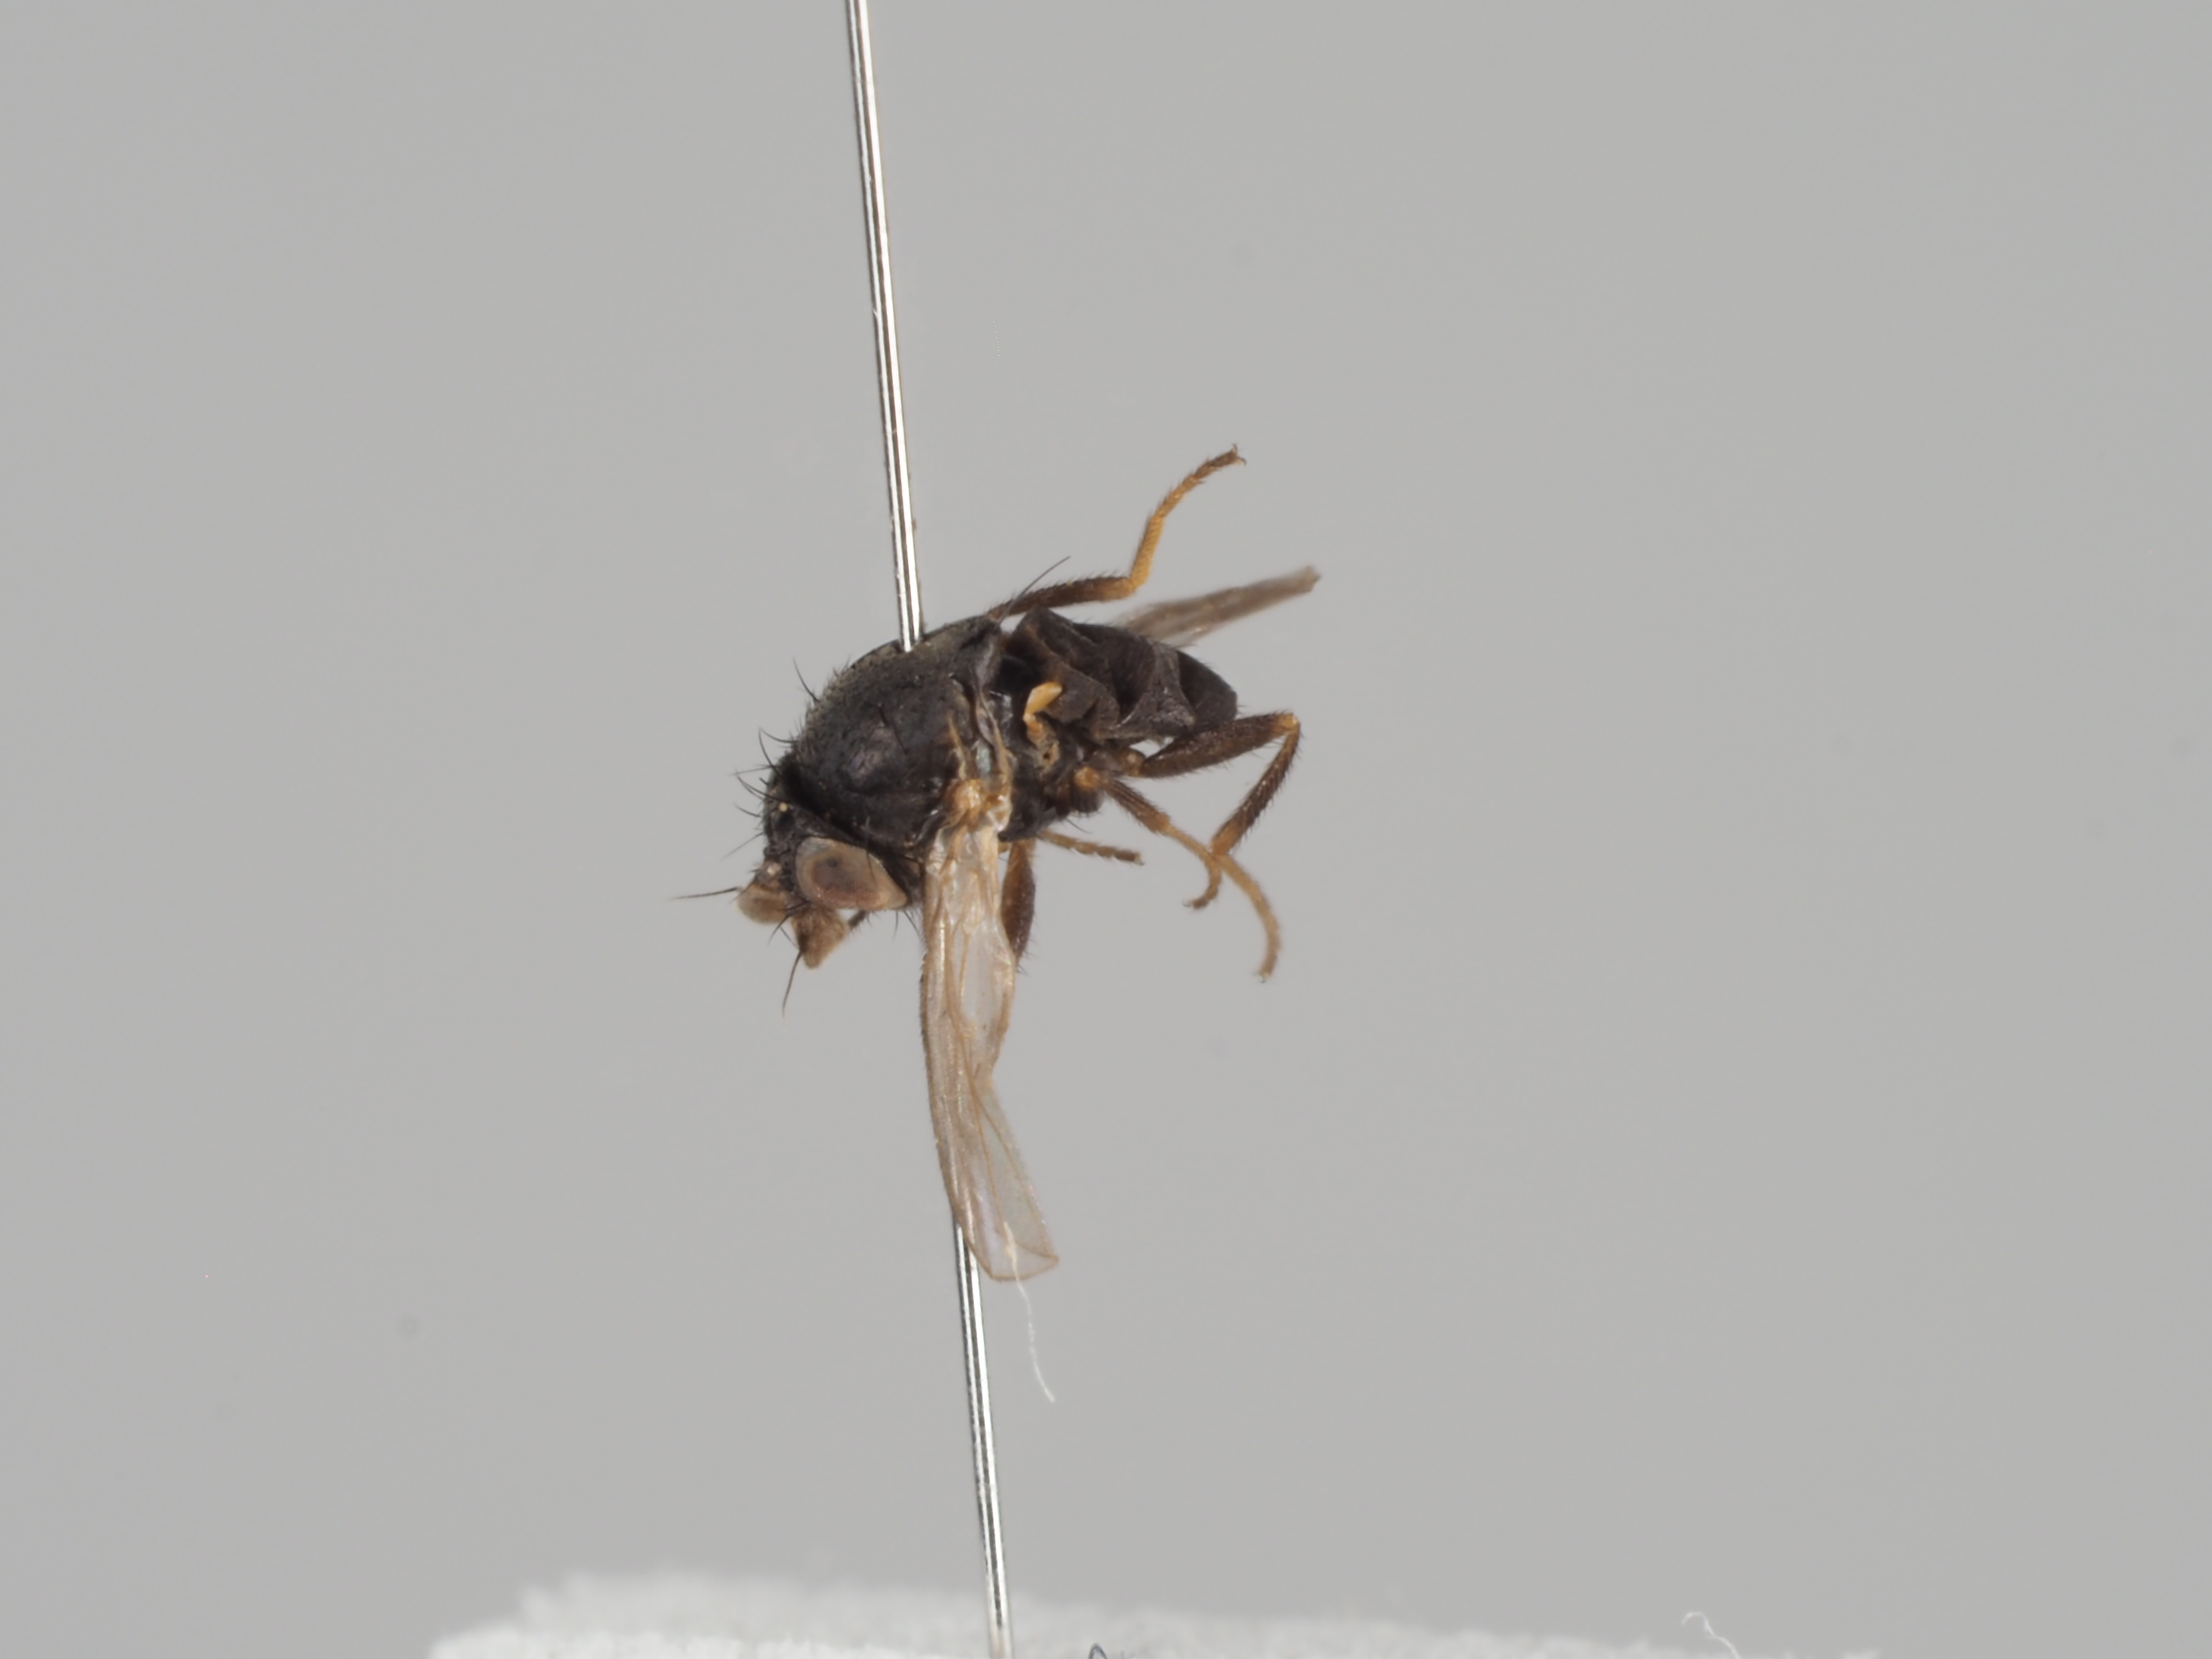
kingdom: Animalia
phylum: Arthropoda
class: Insecta
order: Diptera
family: Milichiidae
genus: Phyllomyza
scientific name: Phyllomyza rubricornis
